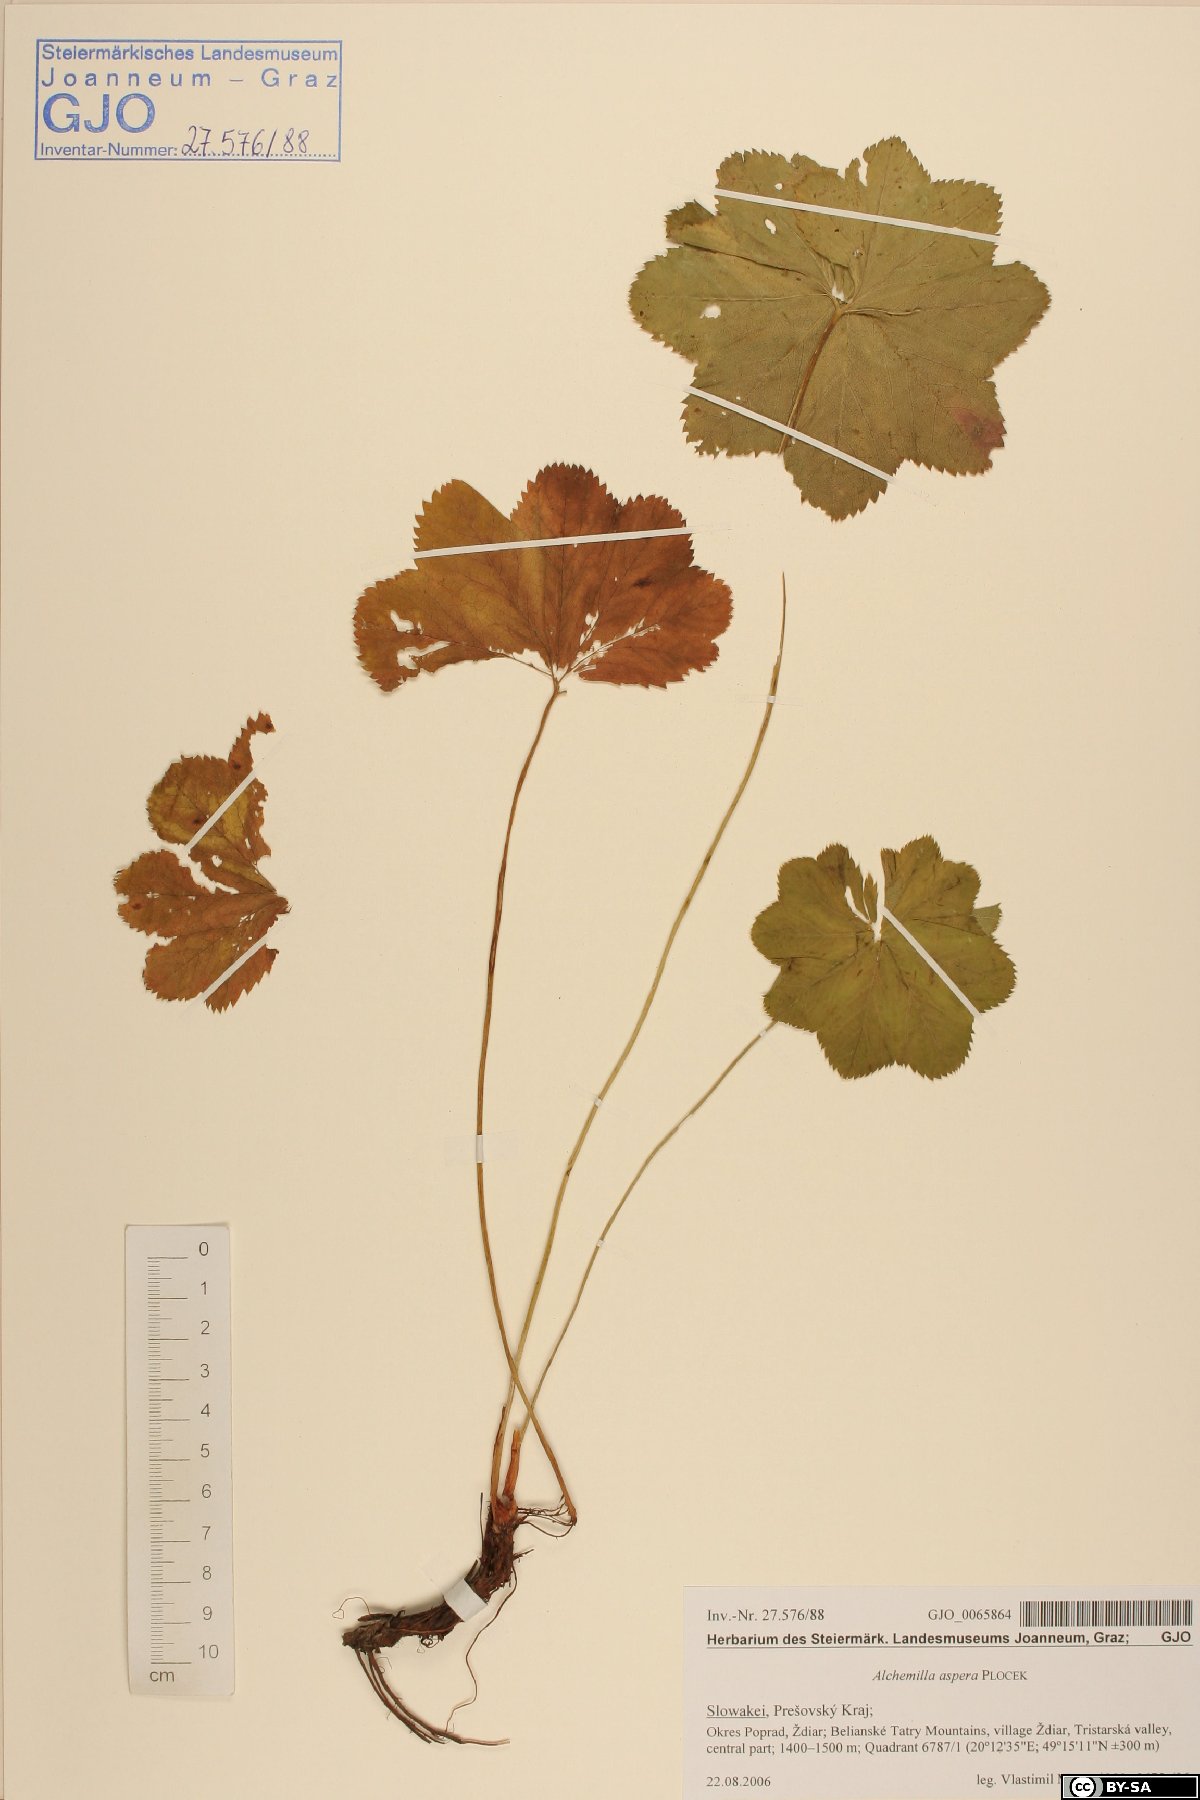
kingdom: Plantae
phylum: Tracheophyta
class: Magnoliopsida
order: Rosales
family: Rosaceae
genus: Alchemilla
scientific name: Alchemilla aspera
